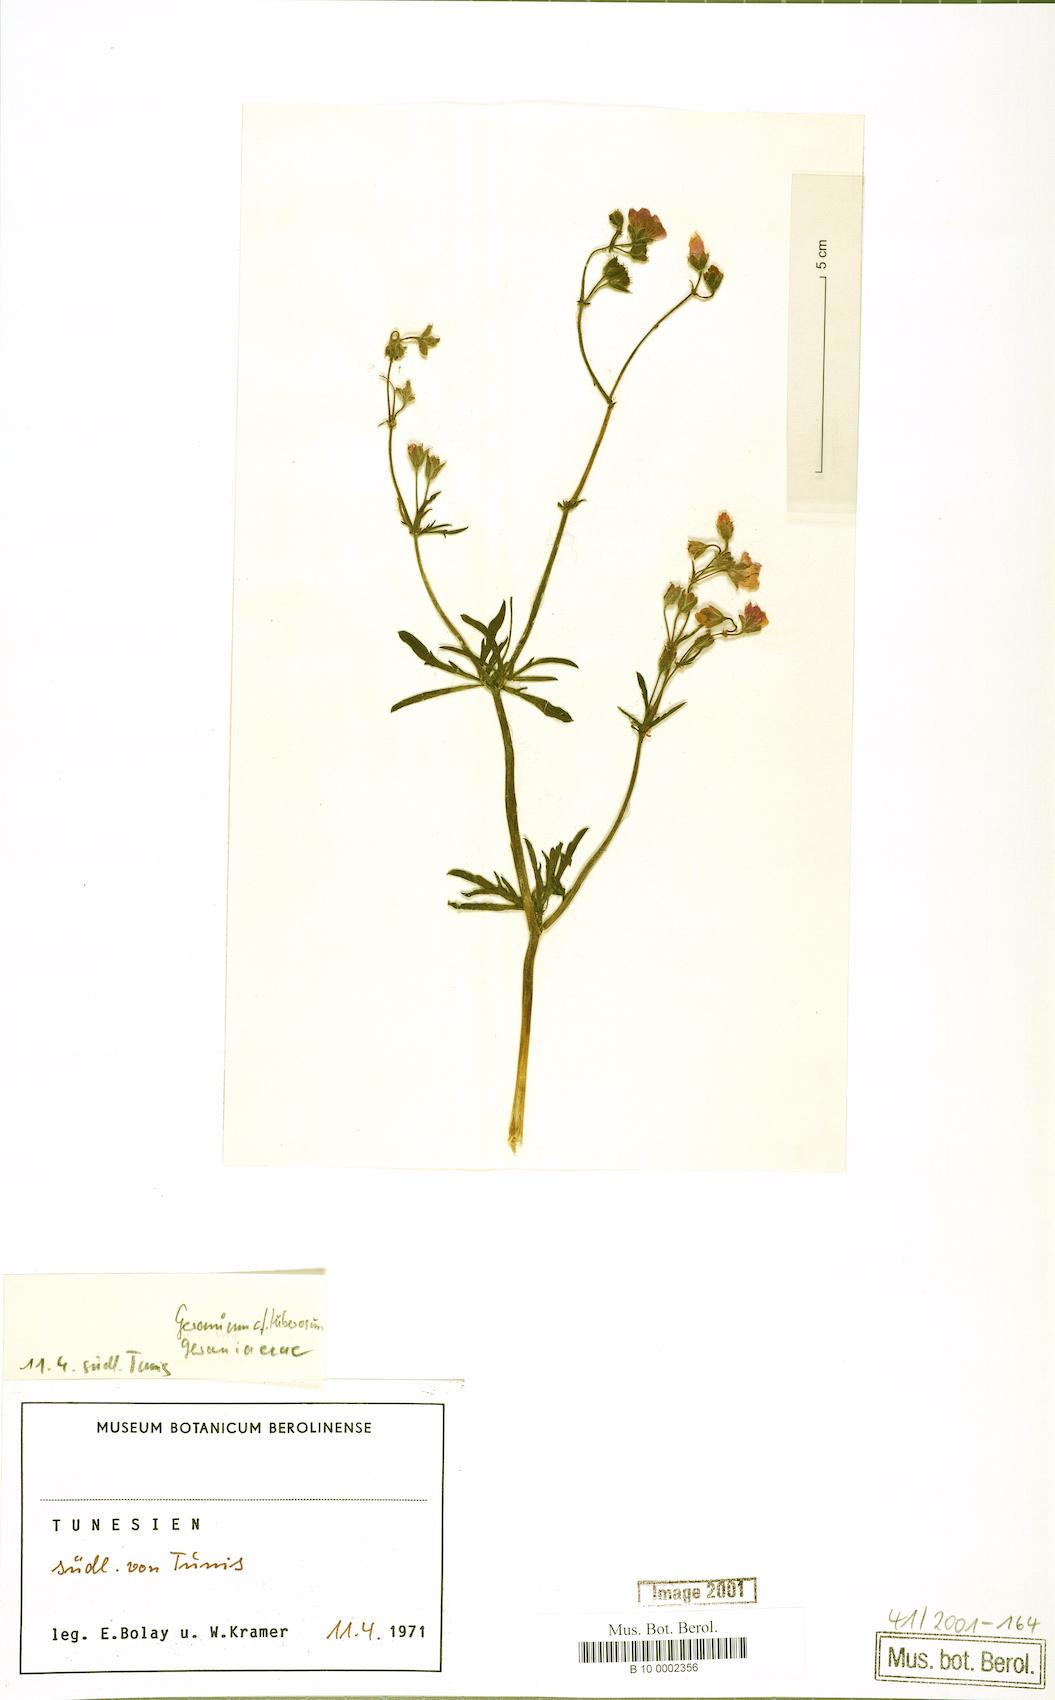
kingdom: Plantae
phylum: Tracheophyta
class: Magnoliopsida
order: Geraniales
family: Geraniaceae
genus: Geranium
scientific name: Geranium tuberosum
